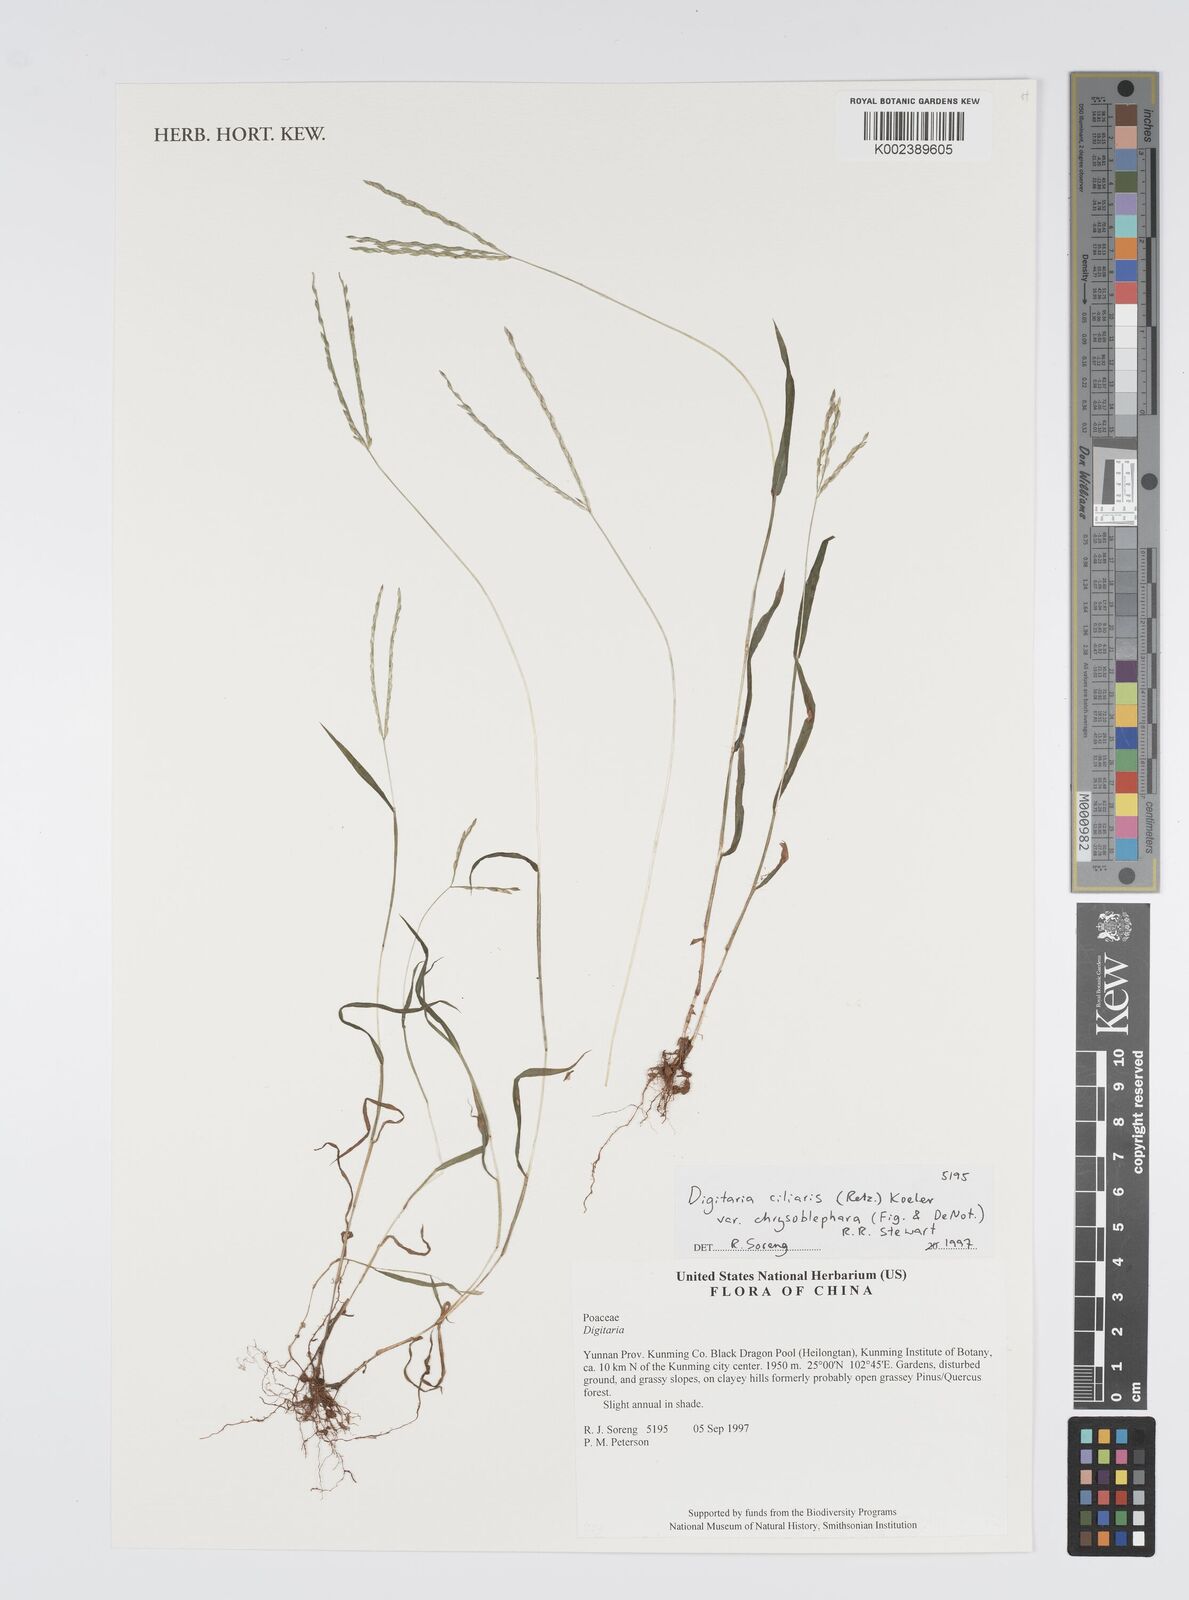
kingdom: Plantae
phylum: Tracheophyta
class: Liliopsida
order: Poales
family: Poaceae
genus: Digitaria
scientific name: Digitaria ciliaris
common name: Tropical finger-grass
